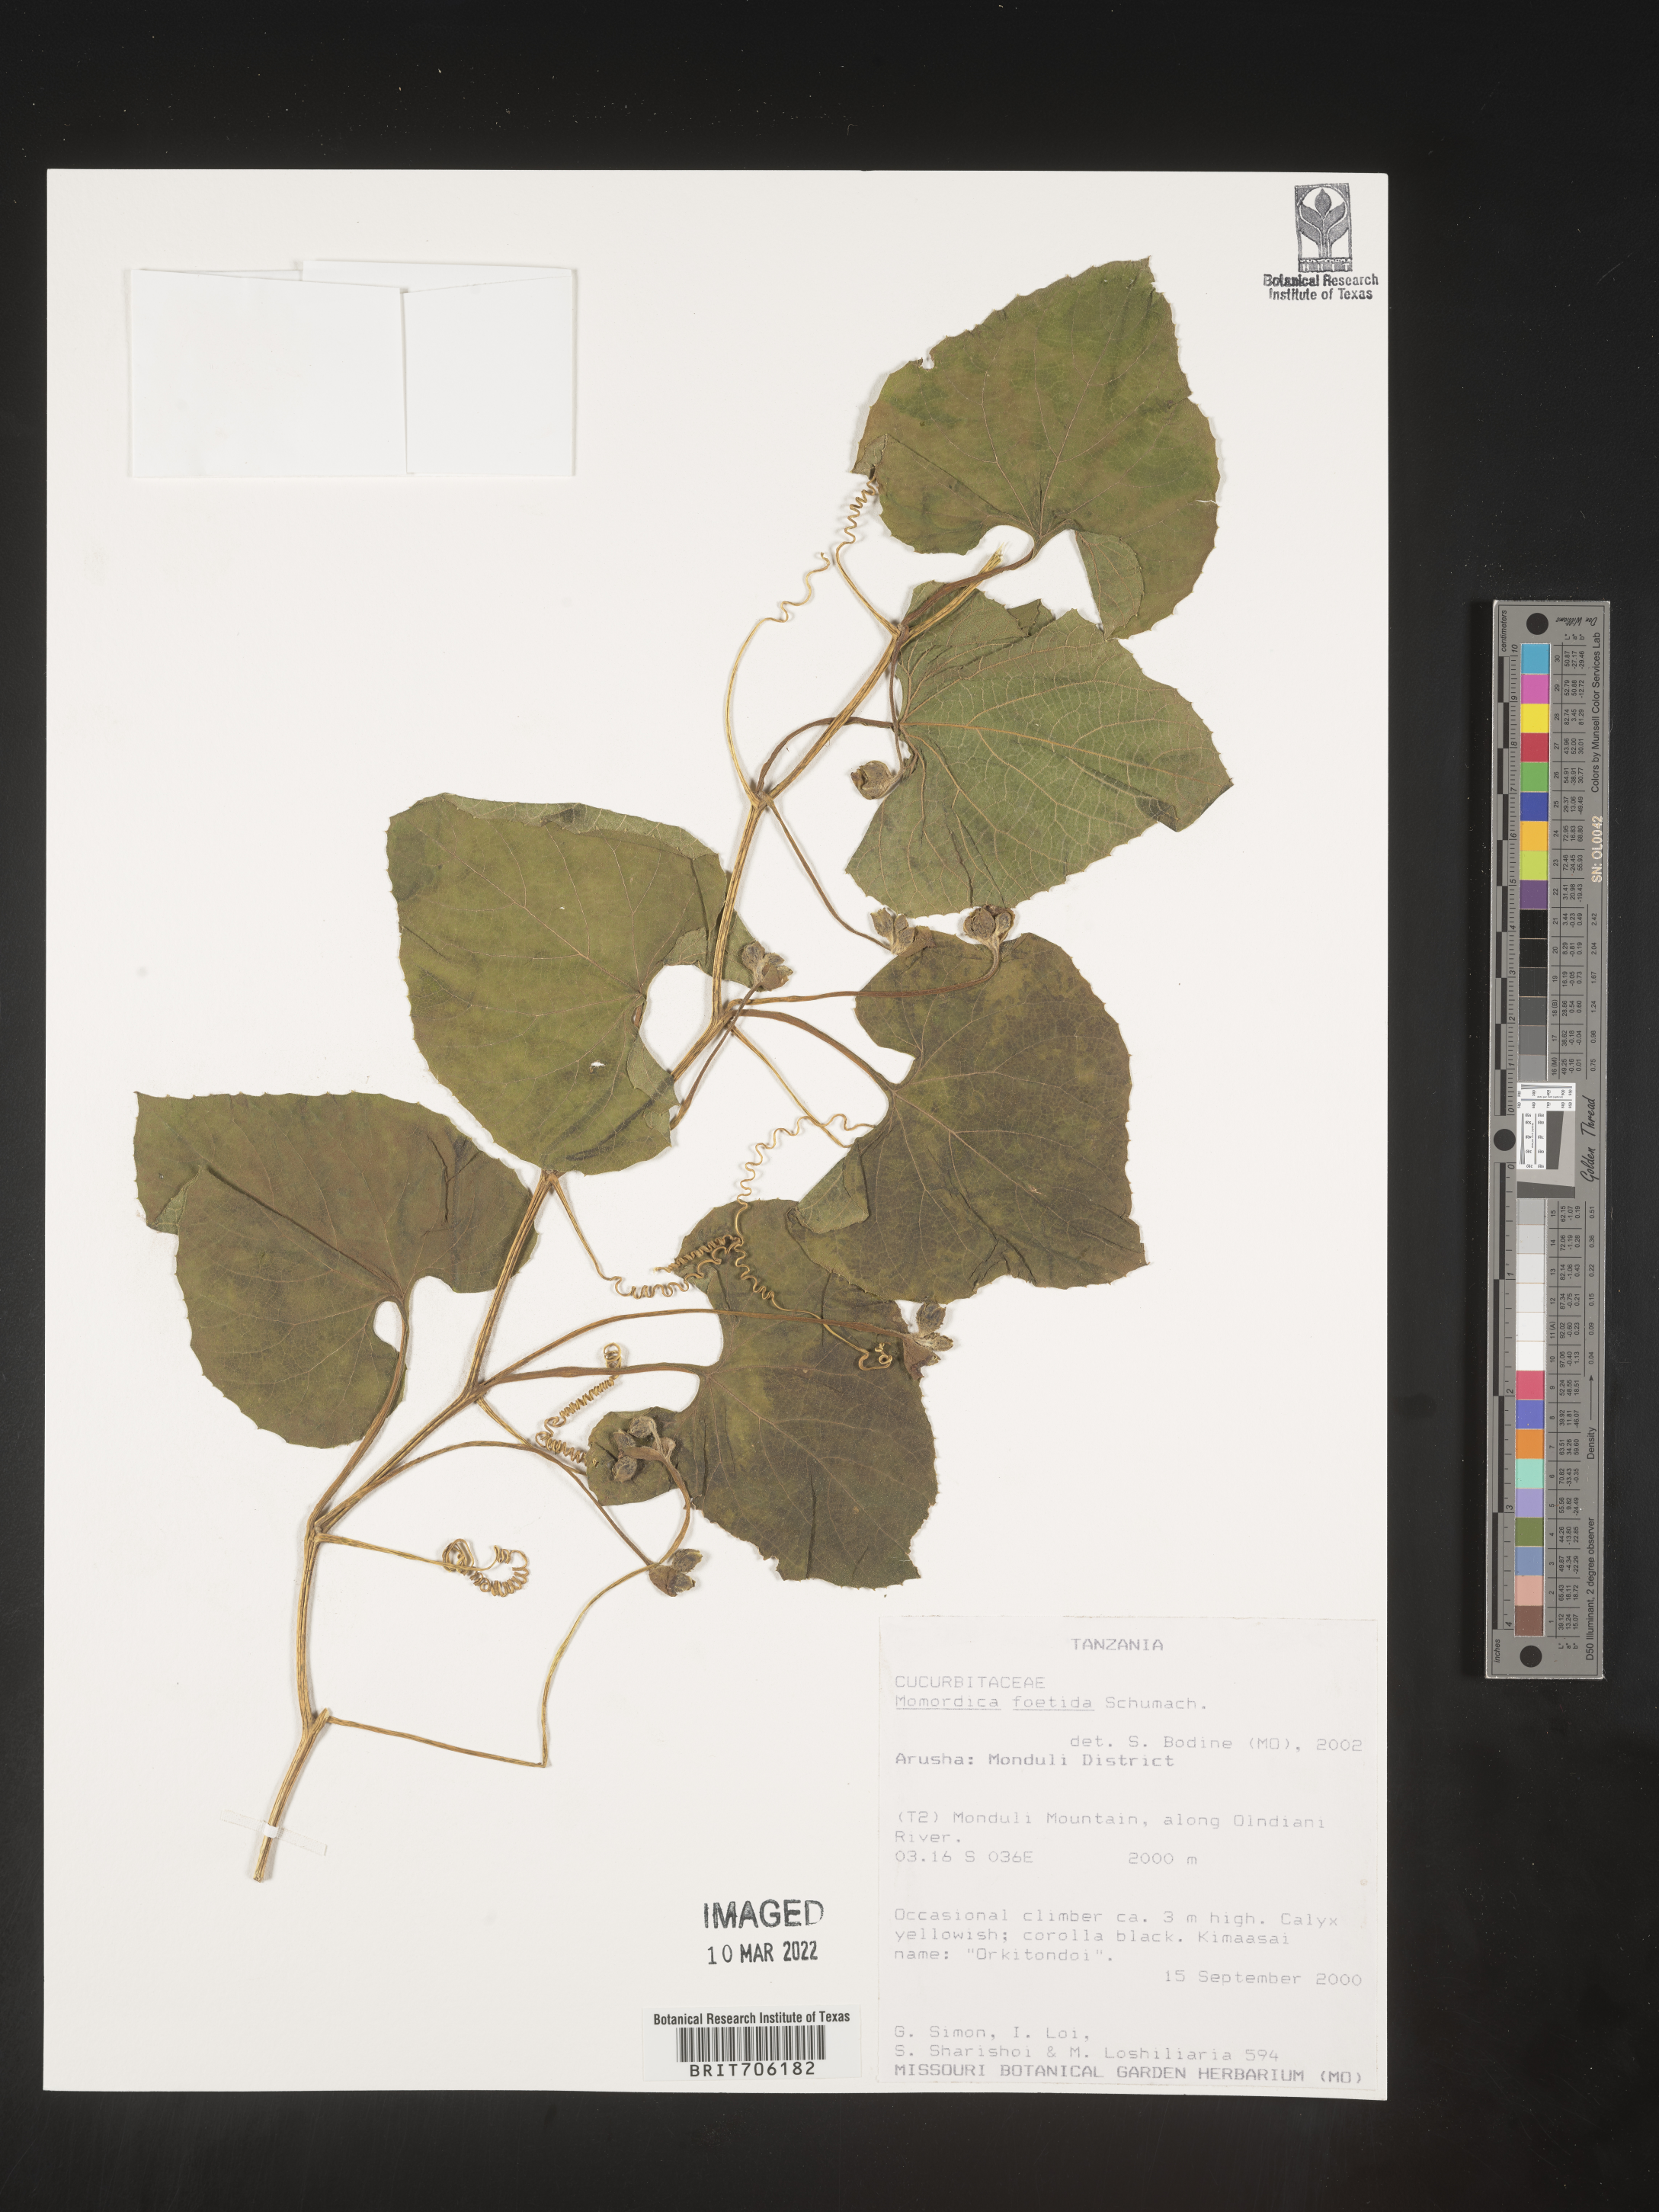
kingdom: Plantae
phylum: Tracheophyta
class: Magnoliopsida
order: Cucurbitales
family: Cucurbitaceae
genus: Momordica
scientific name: Momordica
